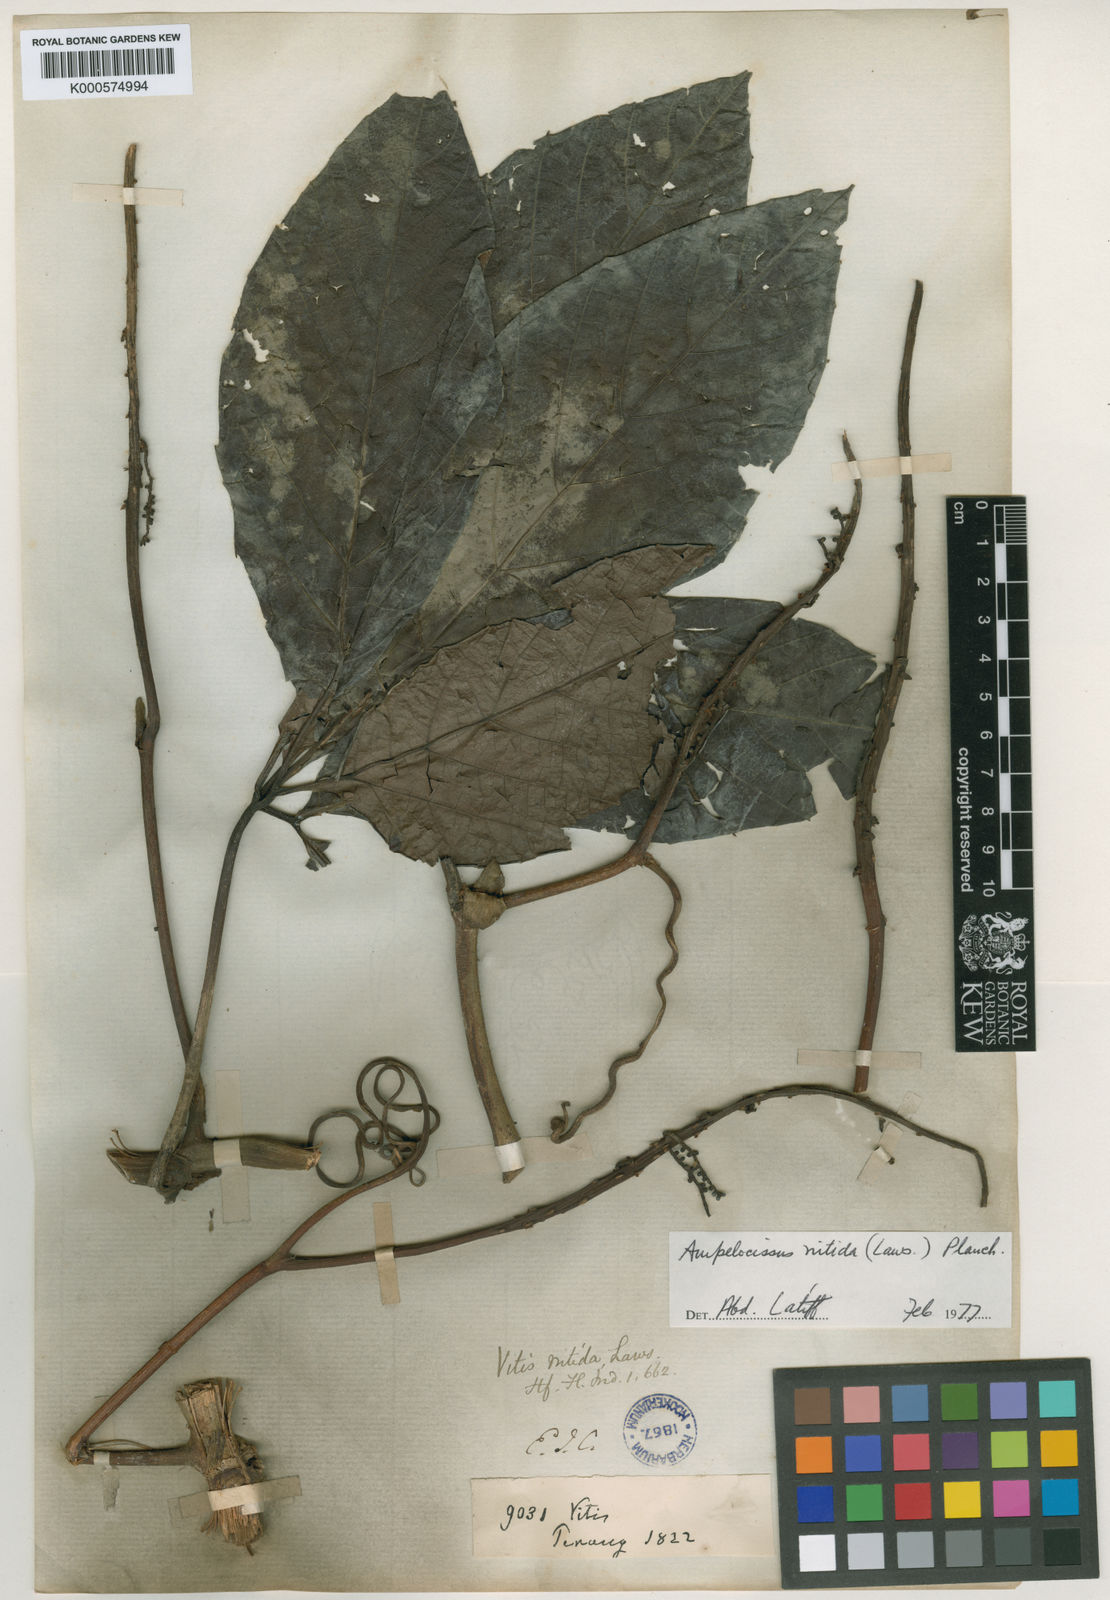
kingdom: Plantae
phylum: Tracheophyta
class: Magnoliopsida
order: Vitales
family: Vitaceae
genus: Ampelocissus
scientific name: Ampelocissus nitida
